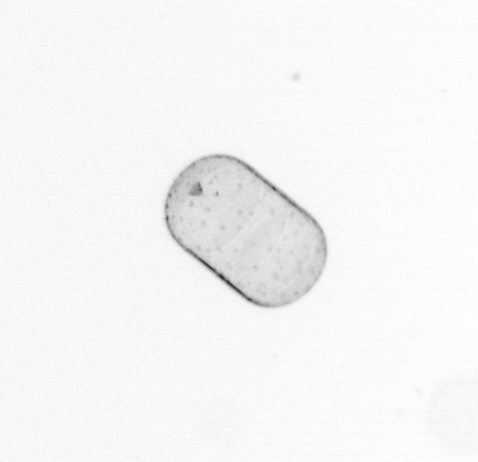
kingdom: Chromista
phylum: Ochrophyta
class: Bacillariophyceae
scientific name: Bacillariophyceae
